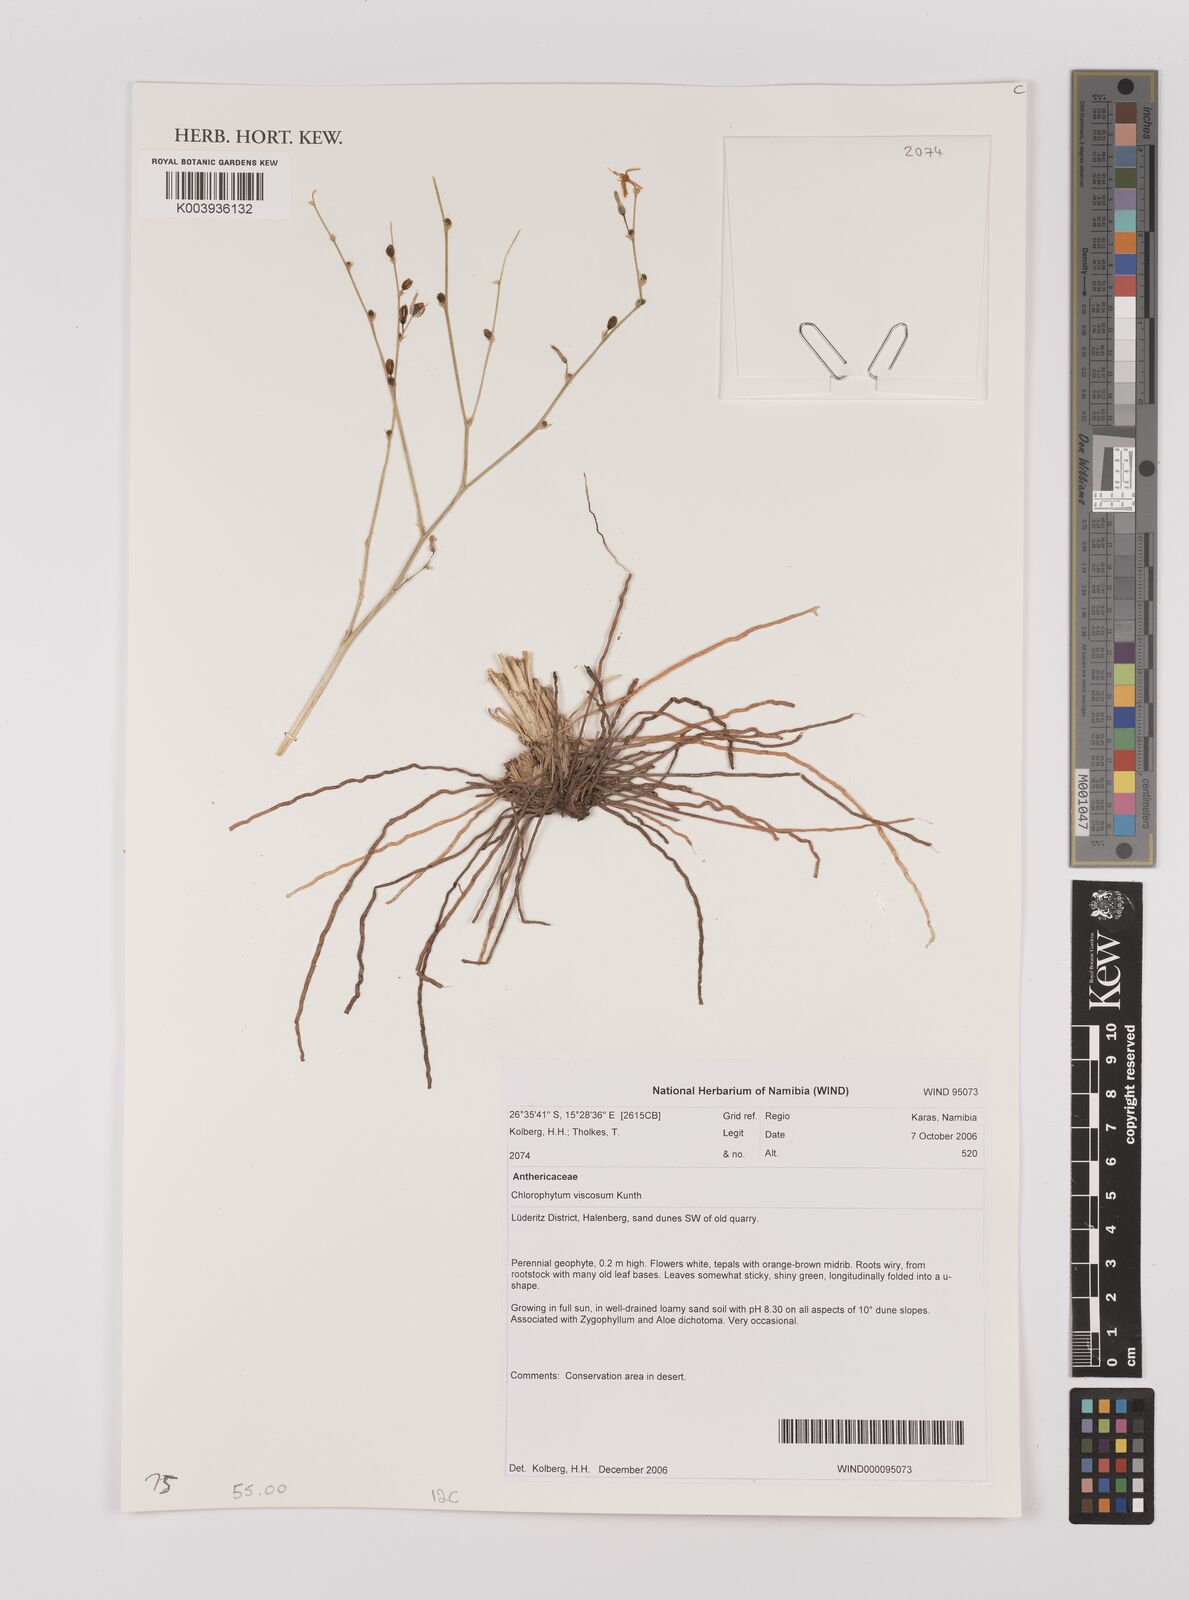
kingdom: Plantae
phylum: Tracheophyta
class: Liliopsida
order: Asparagales
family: Asparagaceae
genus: Chlorophytum
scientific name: Chlorophytum viscosum
